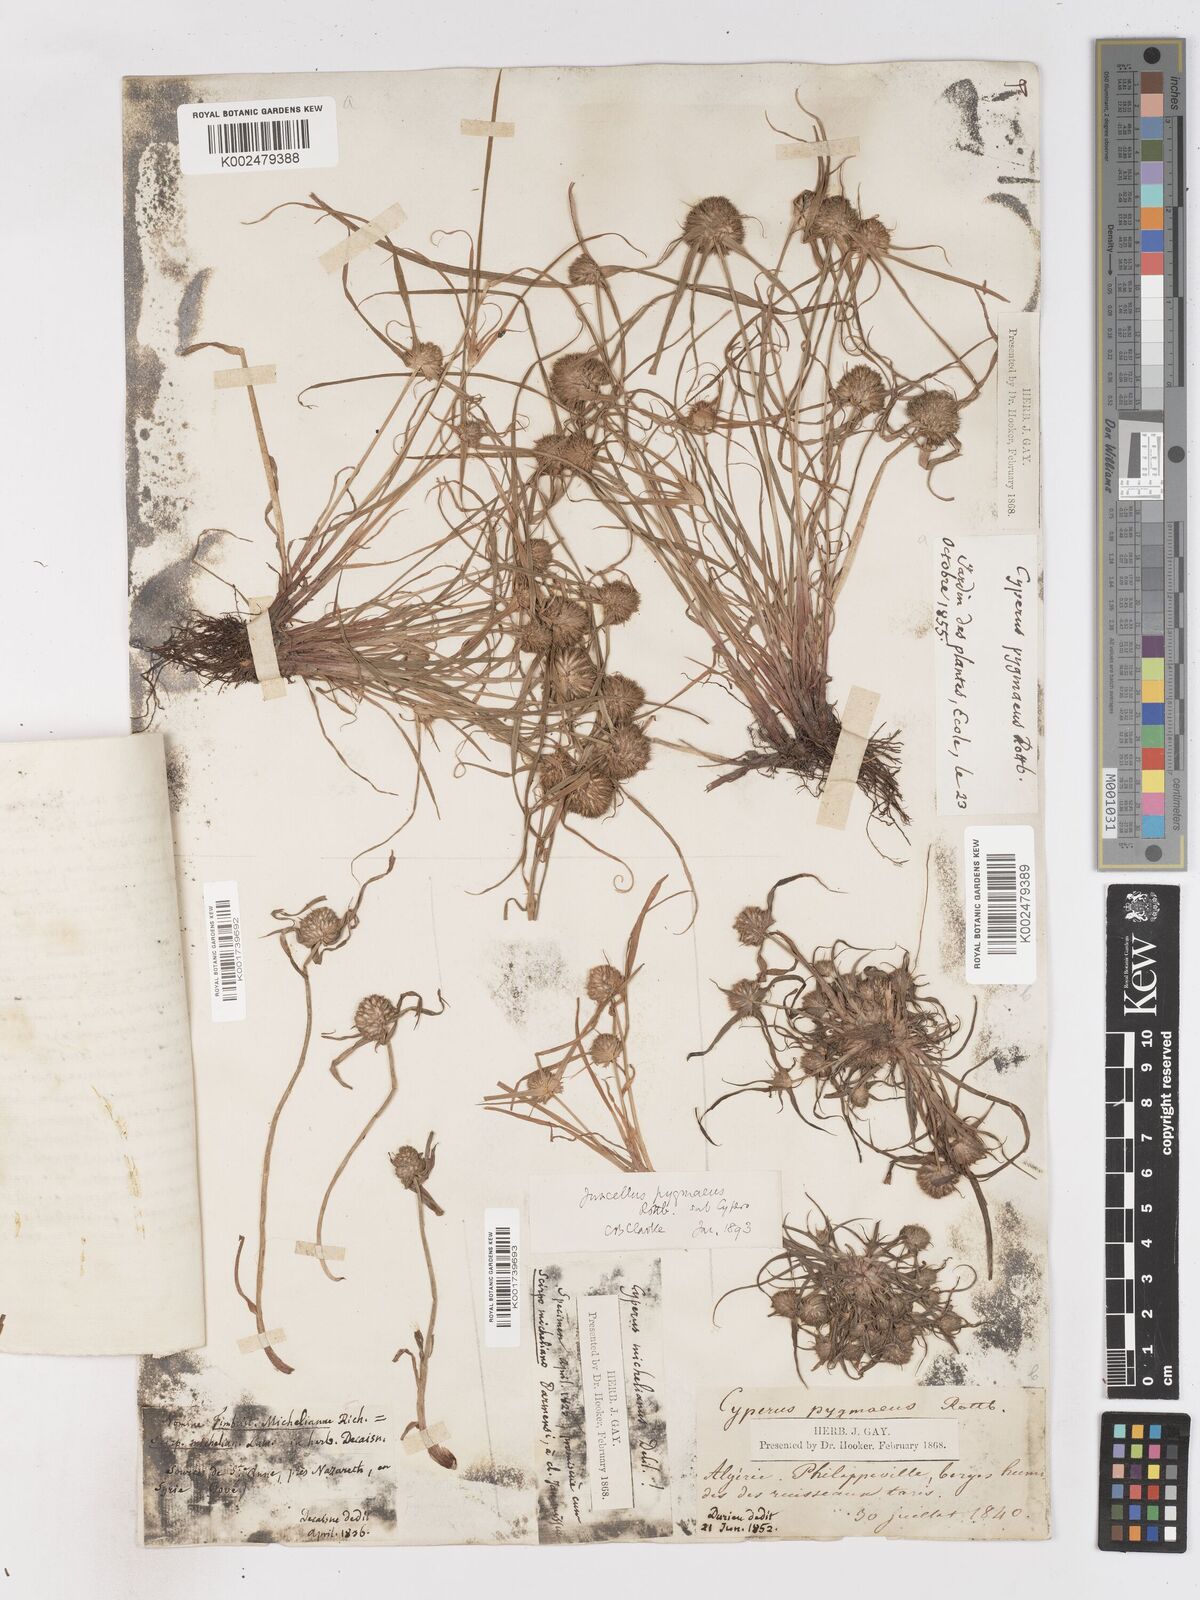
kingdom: Plantae
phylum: Tracheophyta
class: Liliopsida
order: Poales
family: Cyperaceae
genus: Cyperus
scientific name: Cyperus michelianus
